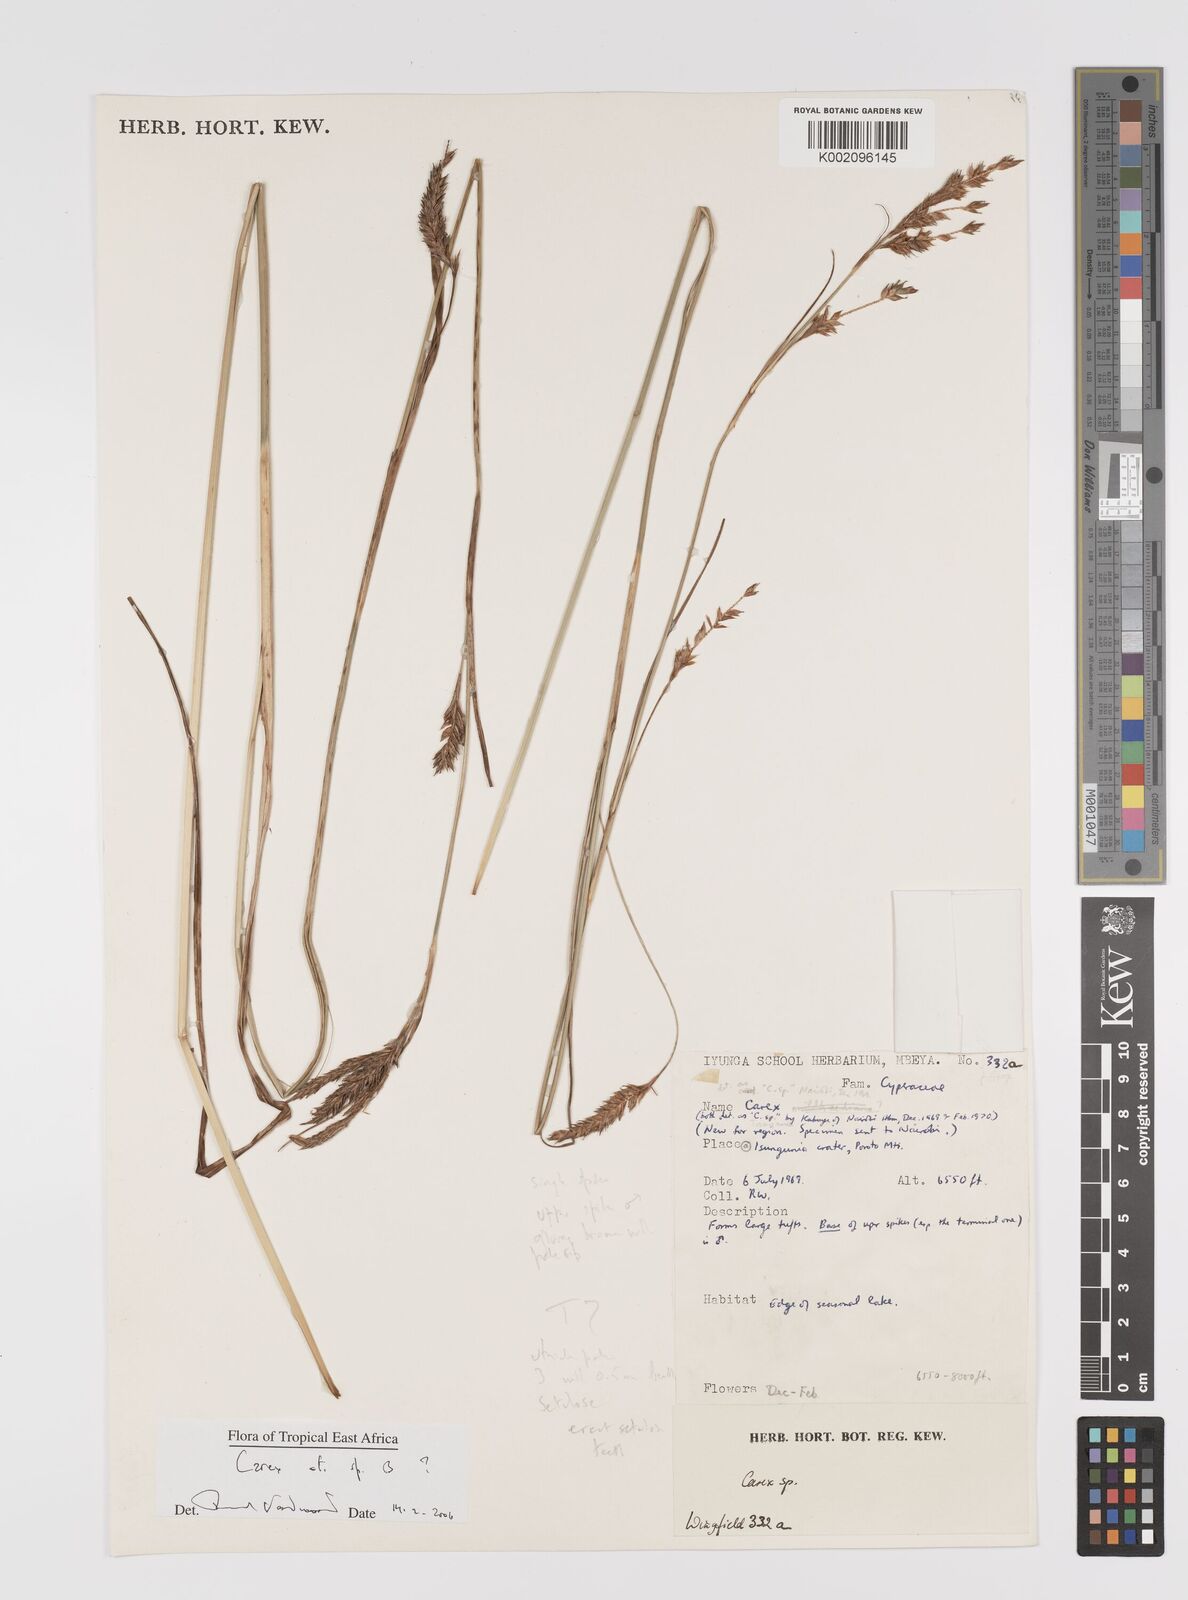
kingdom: Plantae
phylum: Tracheophyta
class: Liliopsida
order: Poales
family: Cyperaceae
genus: Carex
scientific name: Carex
